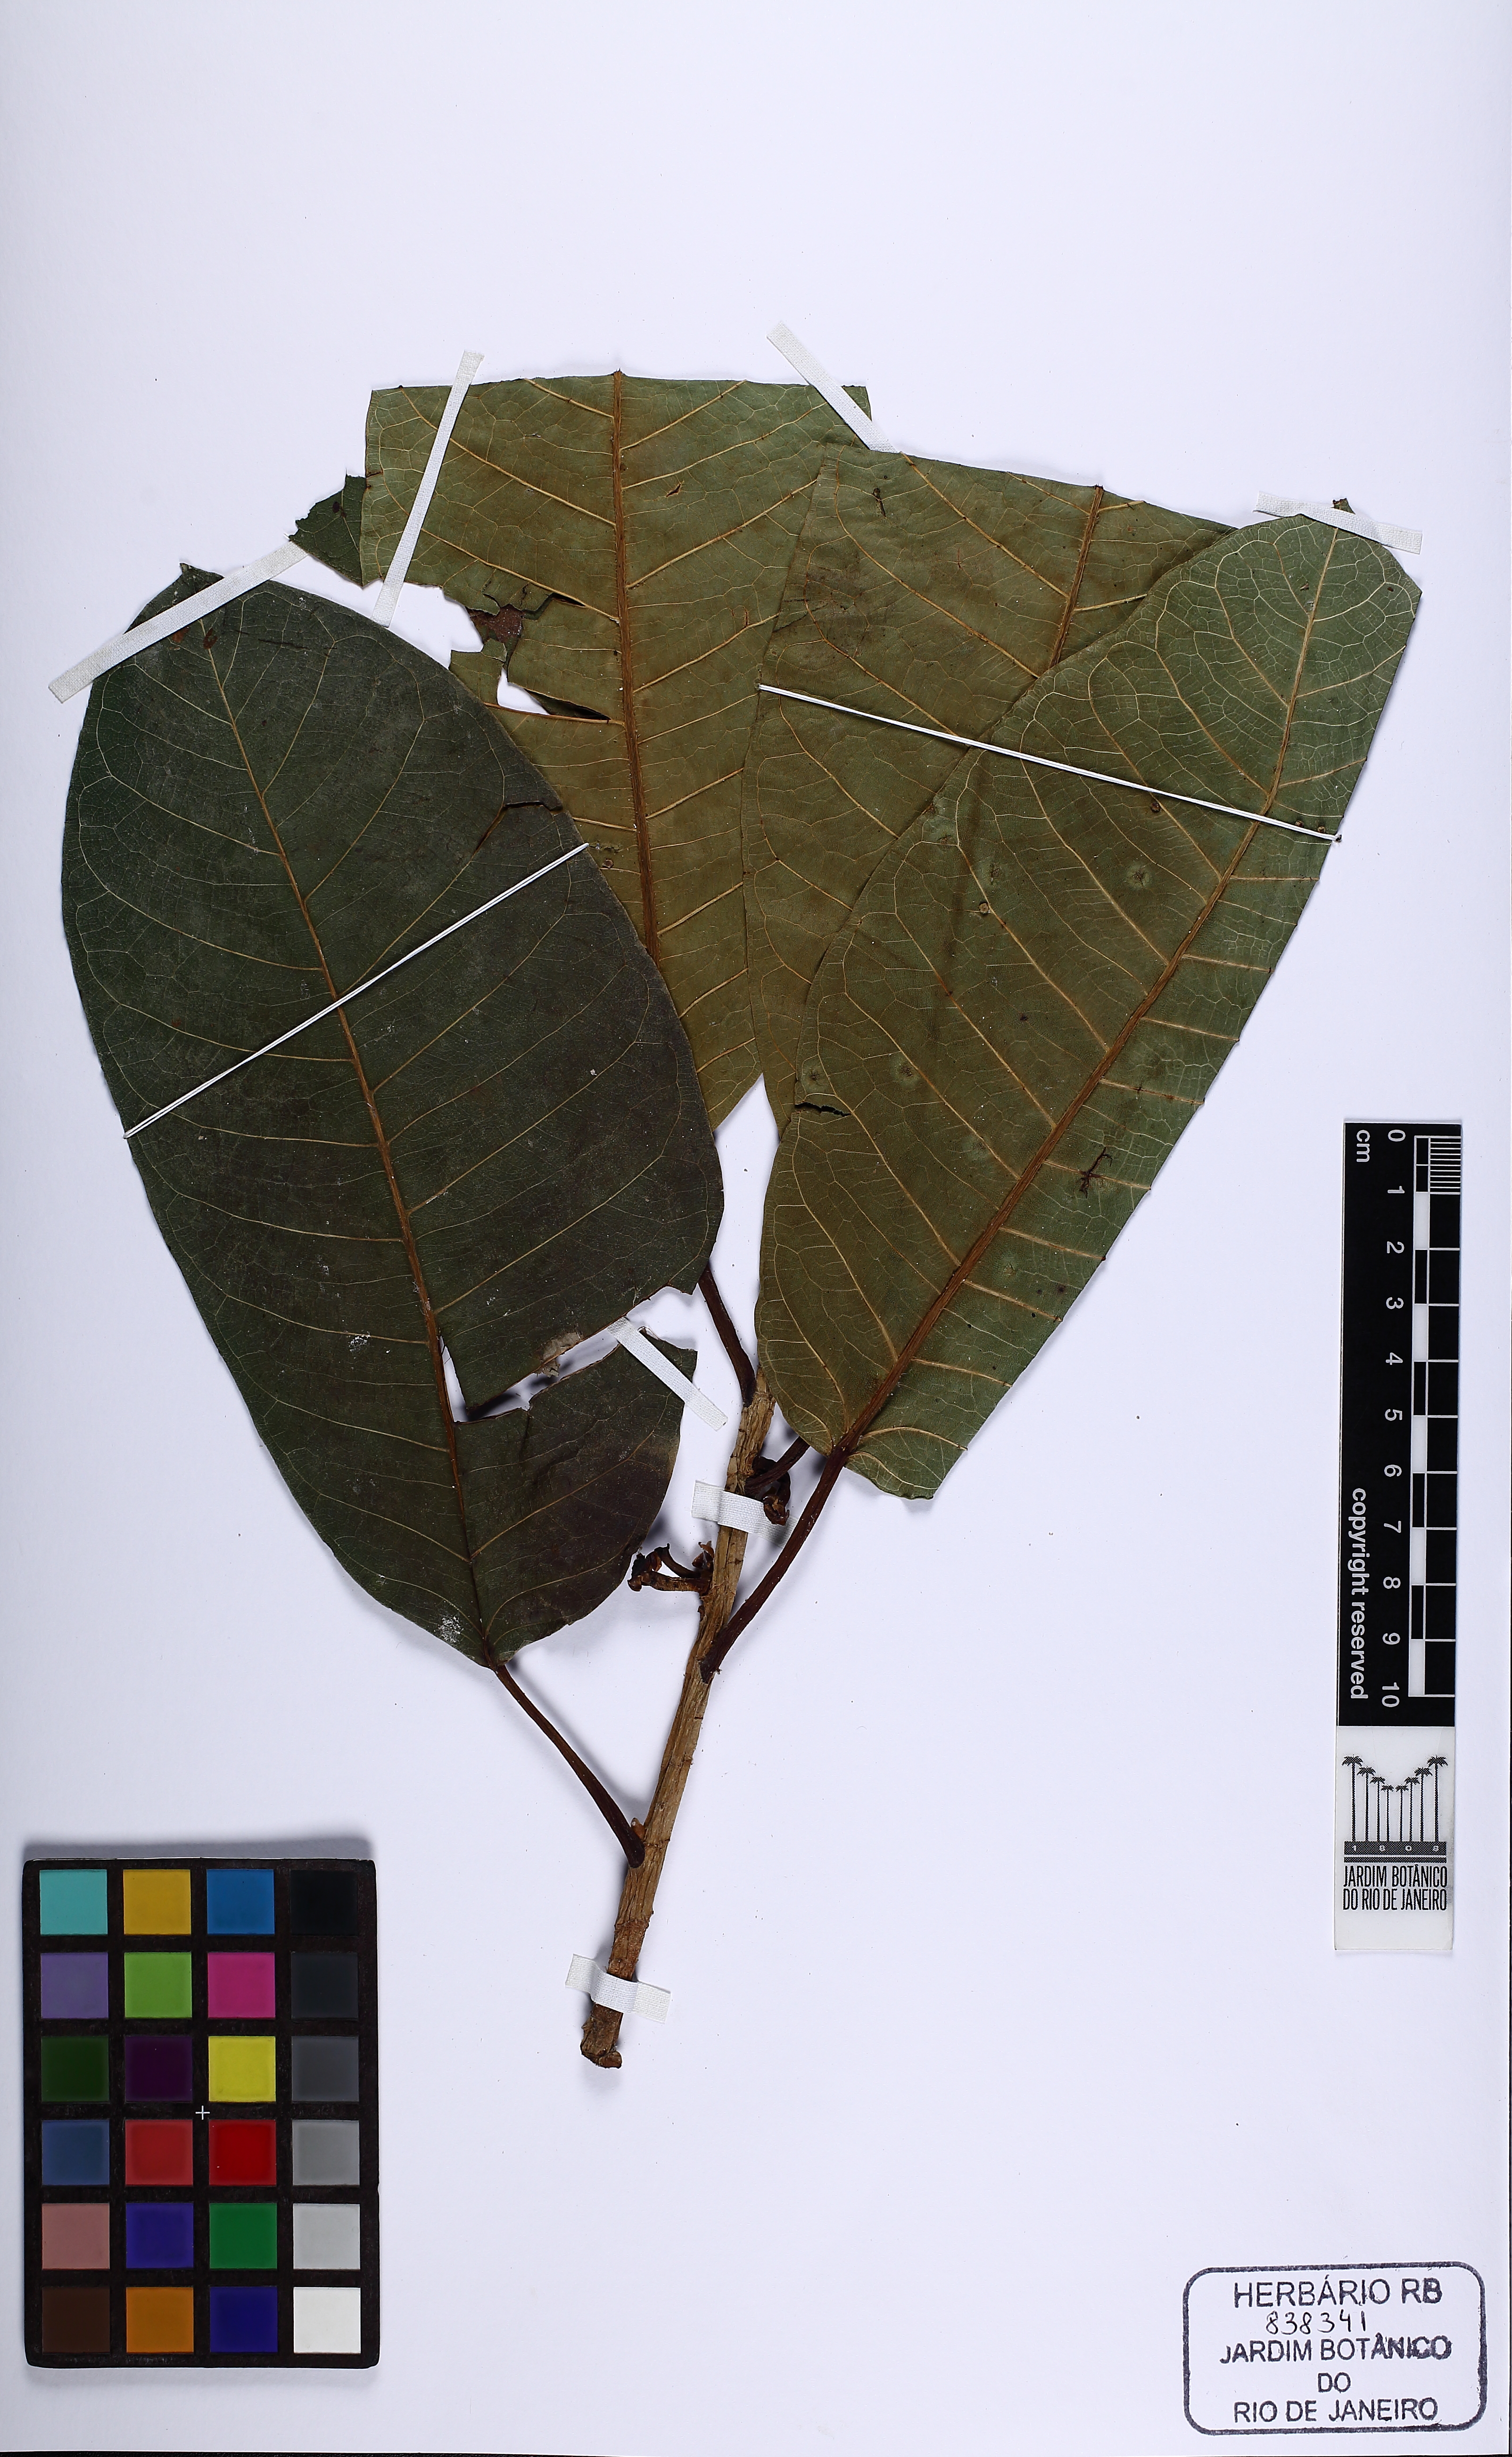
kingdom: Plantae
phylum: Tracheophyta
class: Magnoliopsida
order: Rosales
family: Moraceae
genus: Ficus
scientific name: Ficus crocata
